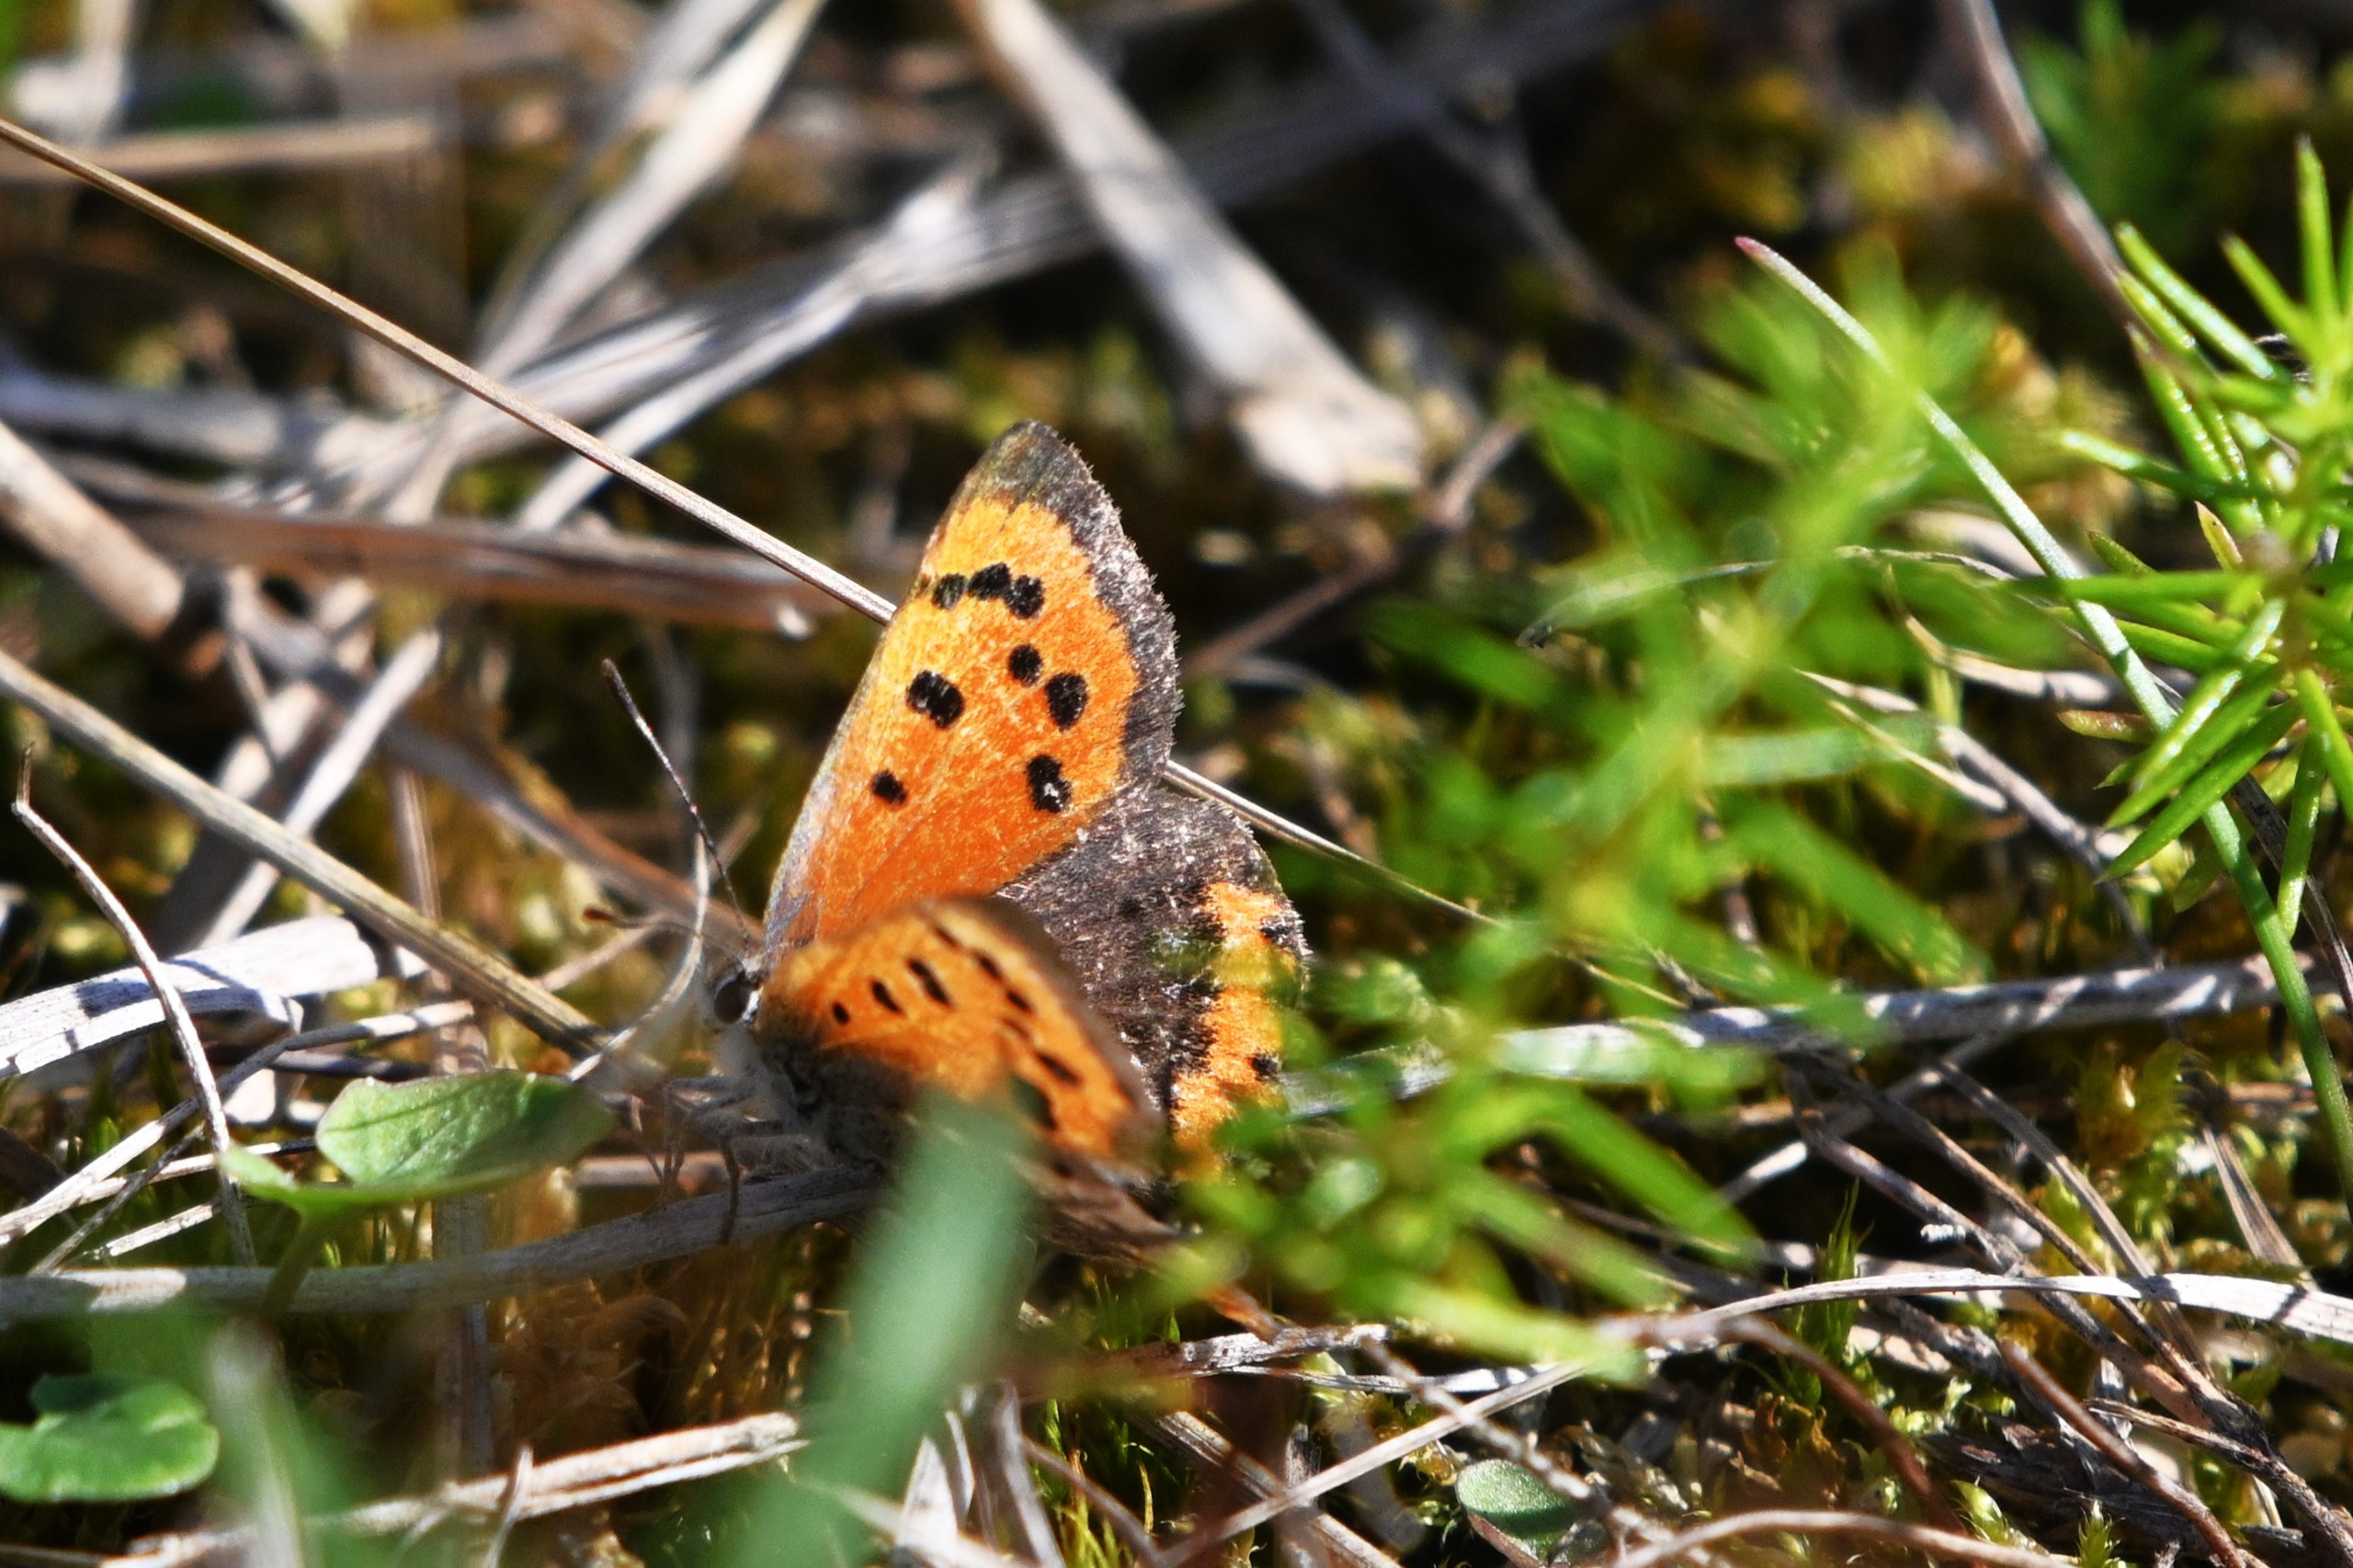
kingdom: Animalia
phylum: Arthropoda
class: Insecta
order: Lepidoptera
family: Lycaenidae
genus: Lycaena
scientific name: Lycaena phlaeas
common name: Lille ildfugl
